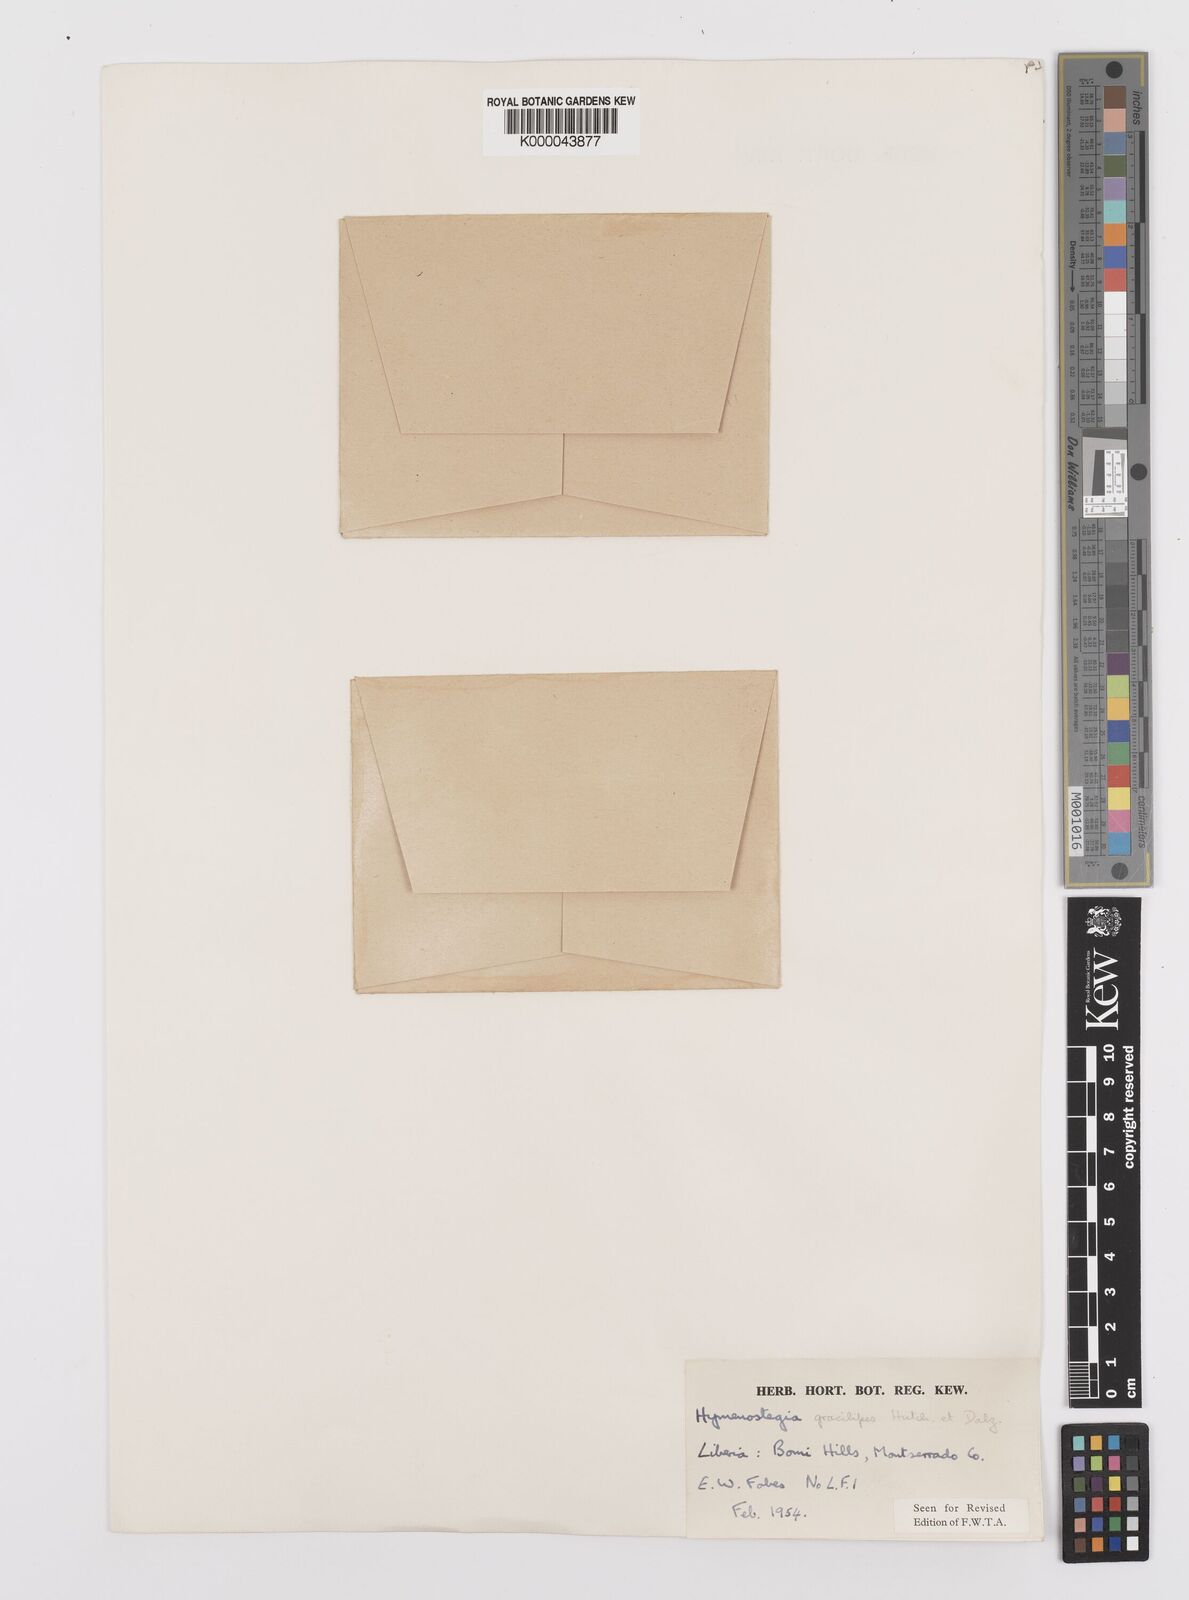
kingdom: Plantae
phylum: Tracheophyta
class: Magnoliopsida
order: Fabales
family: Fabaceae
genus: Hymenostegia
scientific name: Hymenostegia gracilipes
